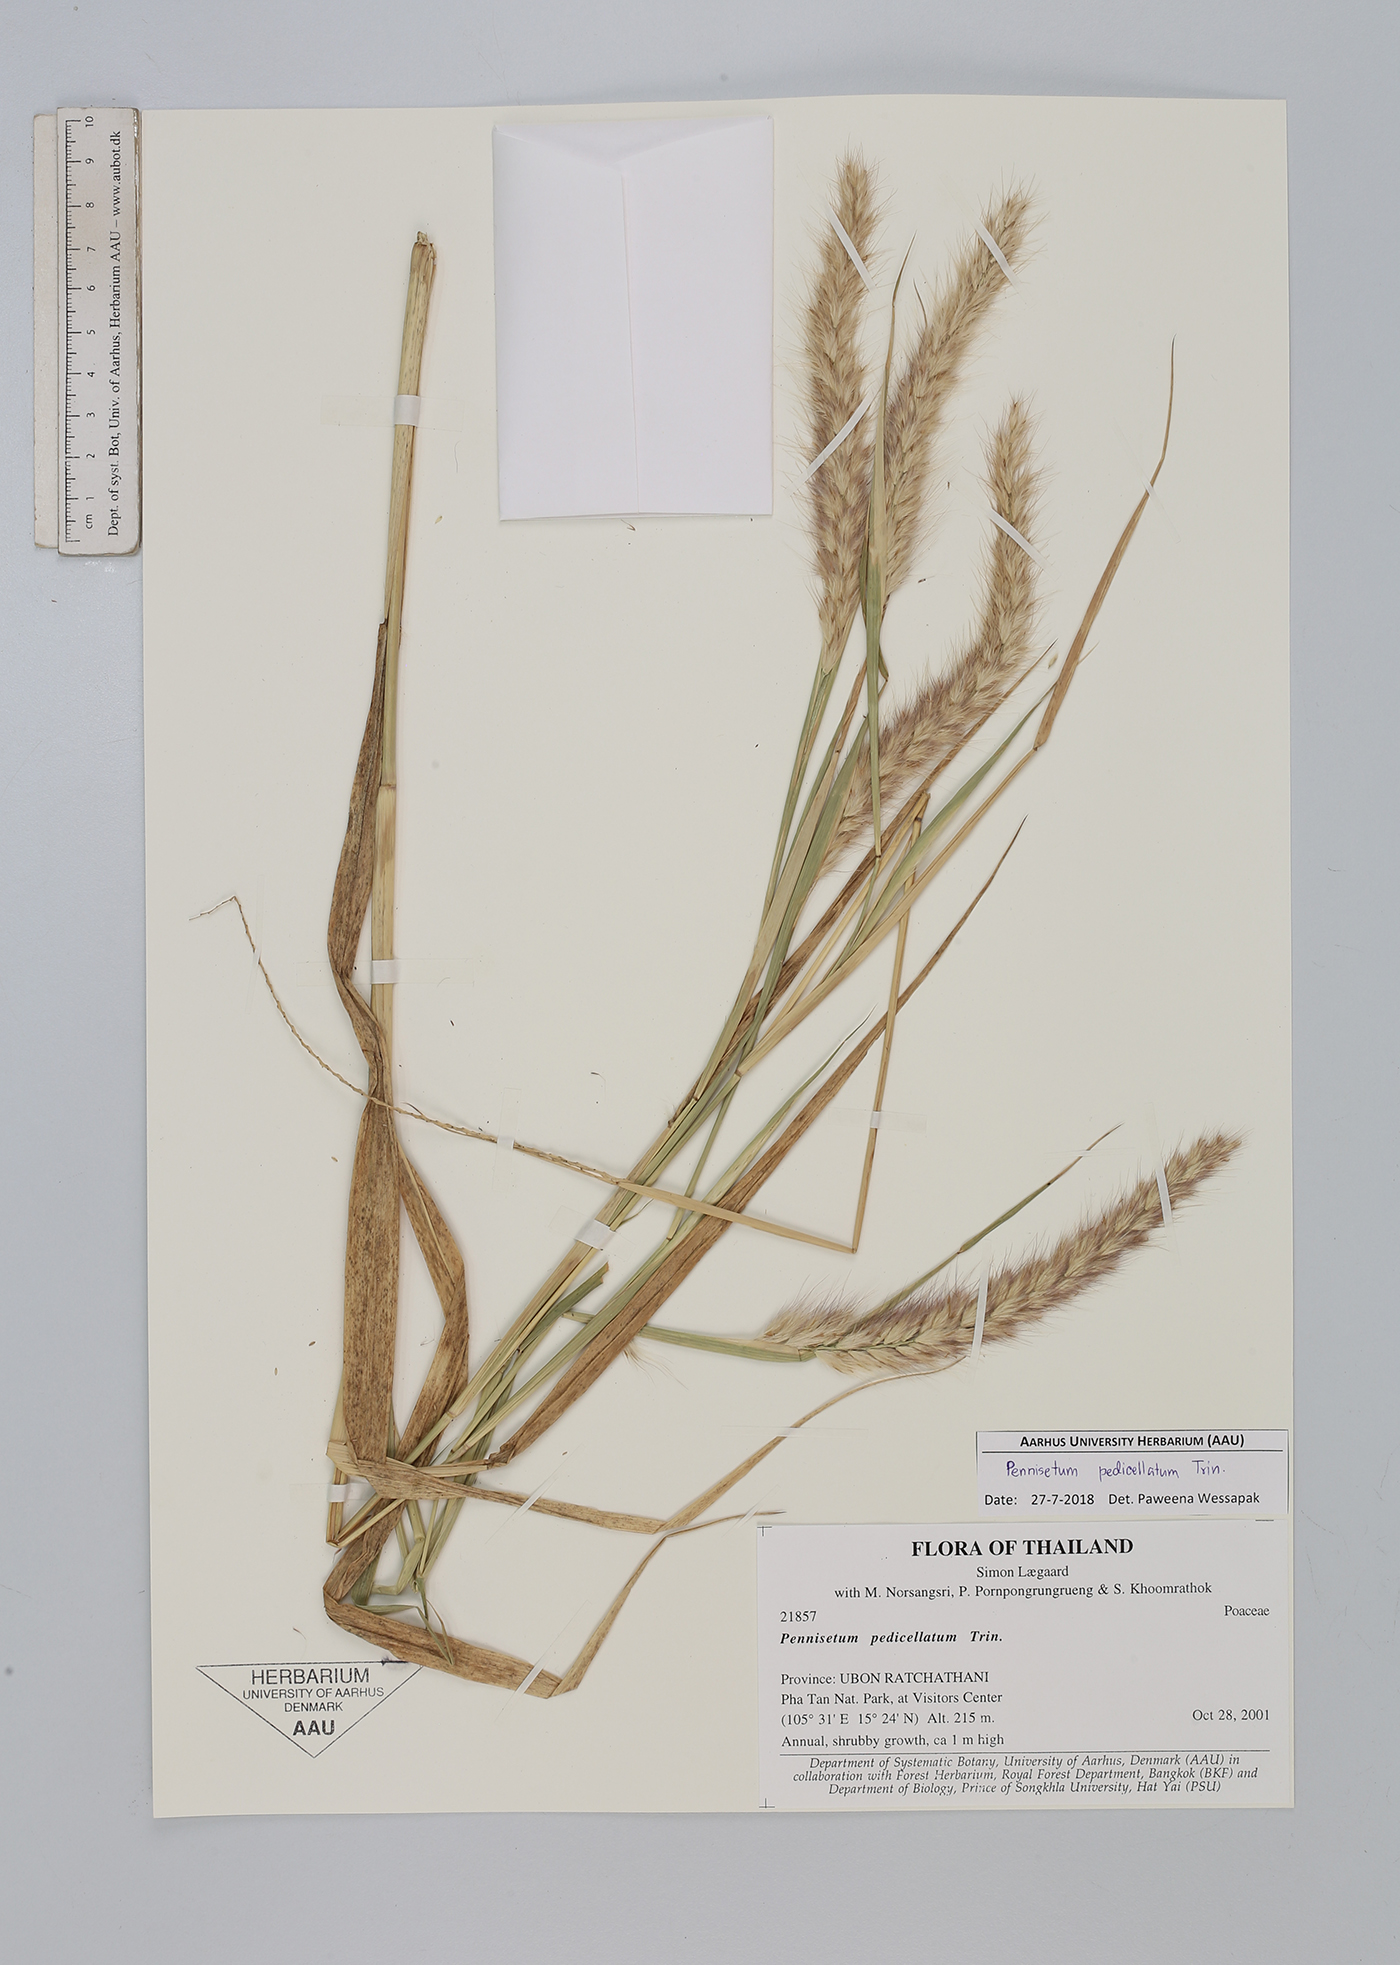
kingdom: Plantae
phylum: Tracheophyta
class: Liliopsida
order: Poales
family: Poaceae
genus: Cenchrus
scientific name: Cenchrus pedicellatus
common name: Hairy fountain grass
